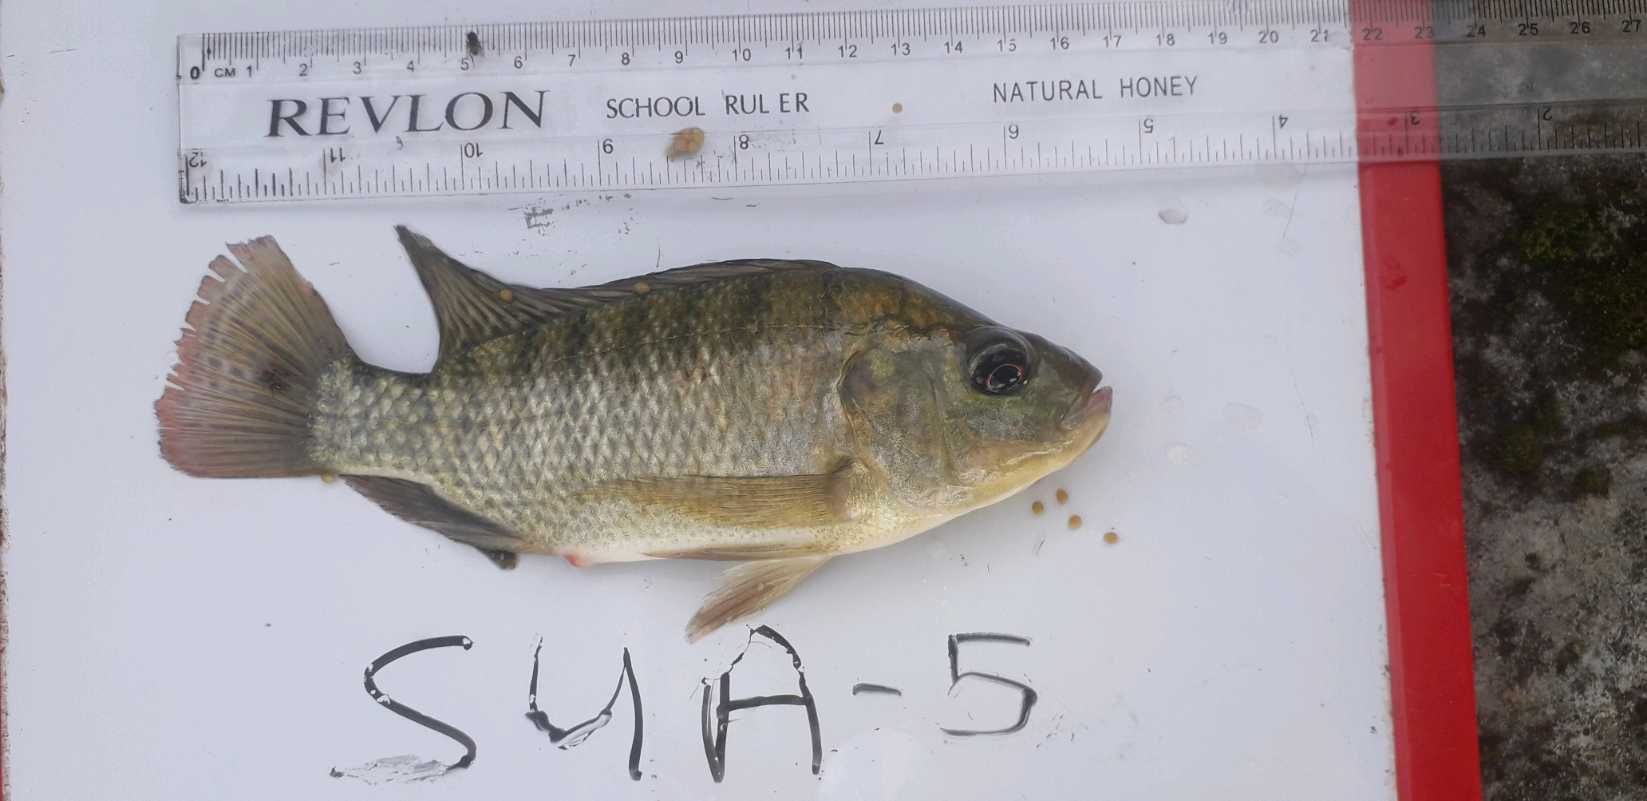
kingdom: Animalia
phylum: Chordata
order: Perciformes
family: Cichlidae
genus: Oreochromis
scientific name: Oreochromis
